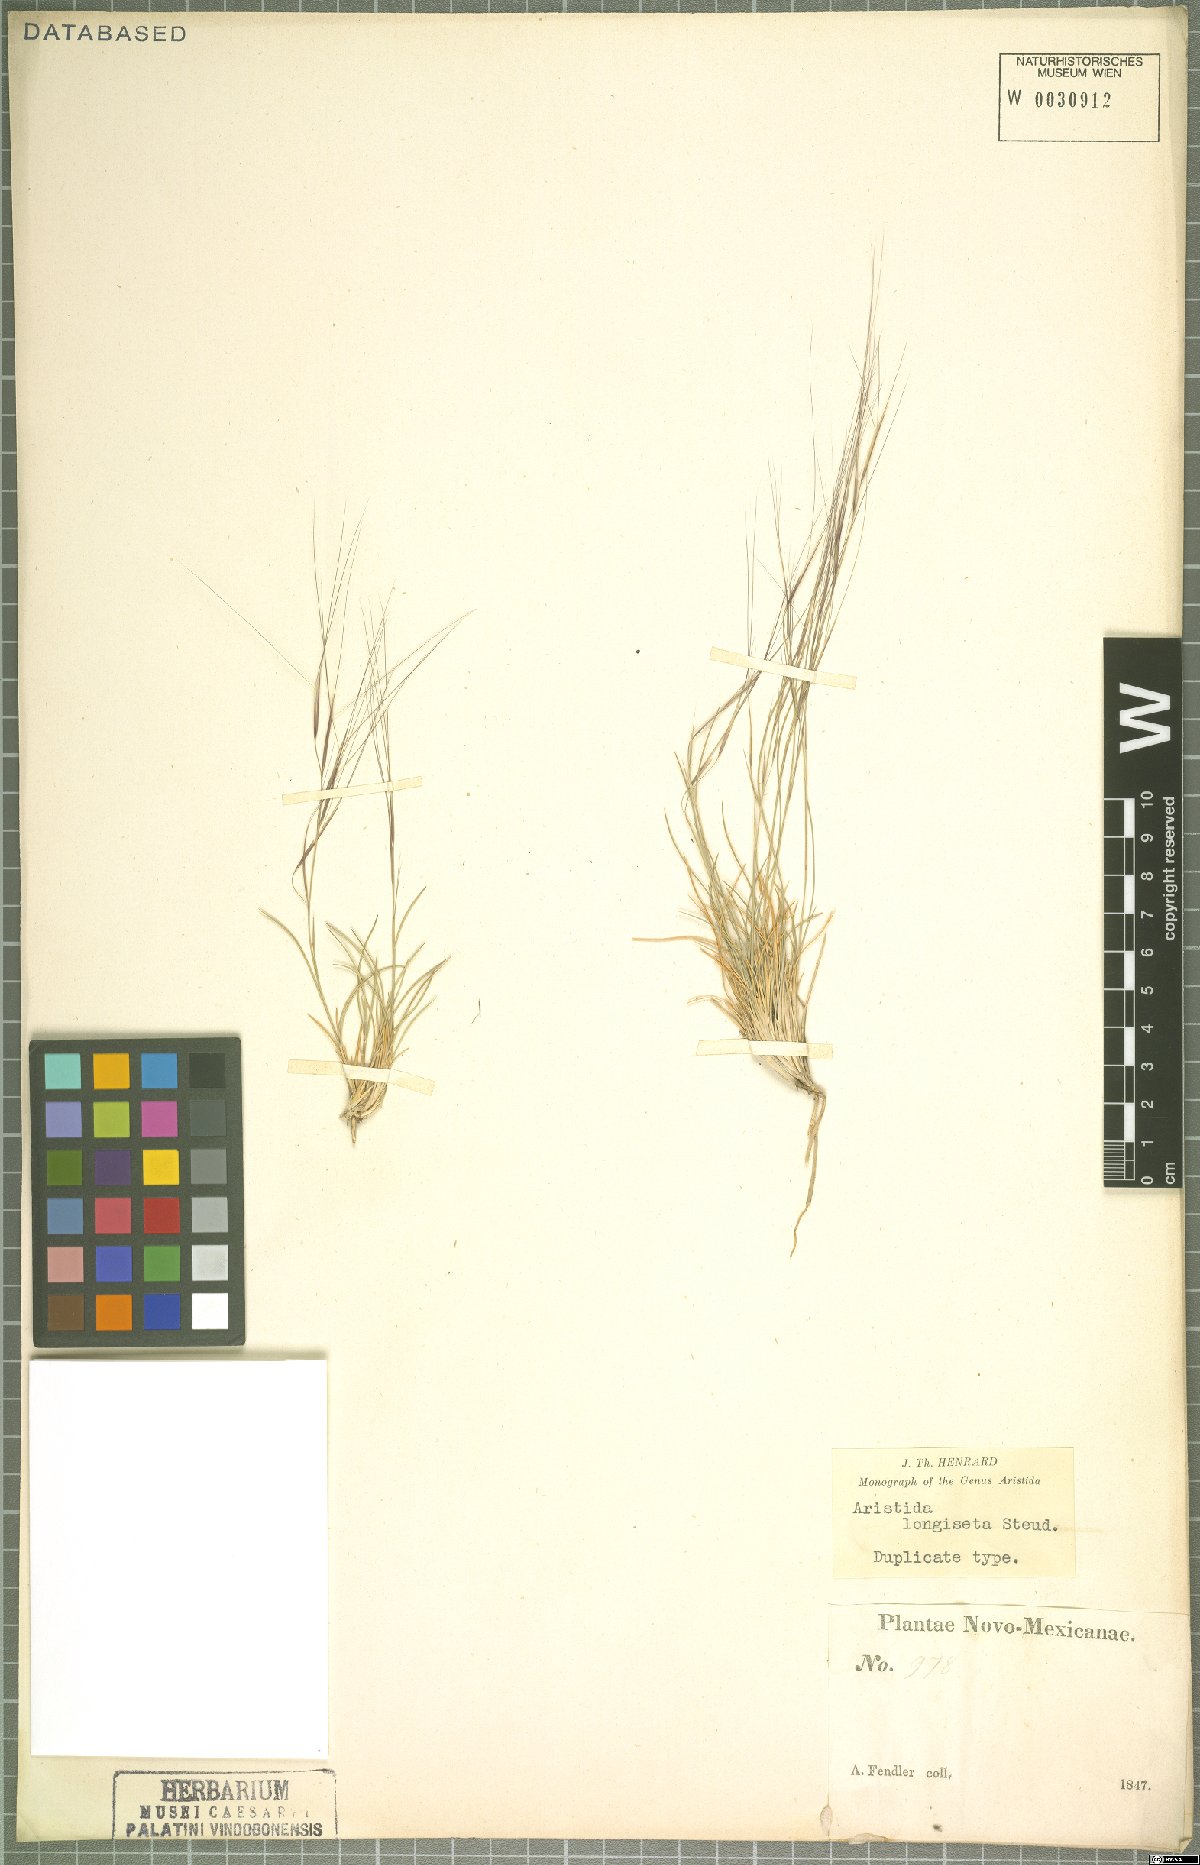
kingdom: Plantae
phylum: Tracheophyta
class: Liliopsida
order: Poales
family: Poaceae
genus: Aristida
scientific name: Aristida longiseta
